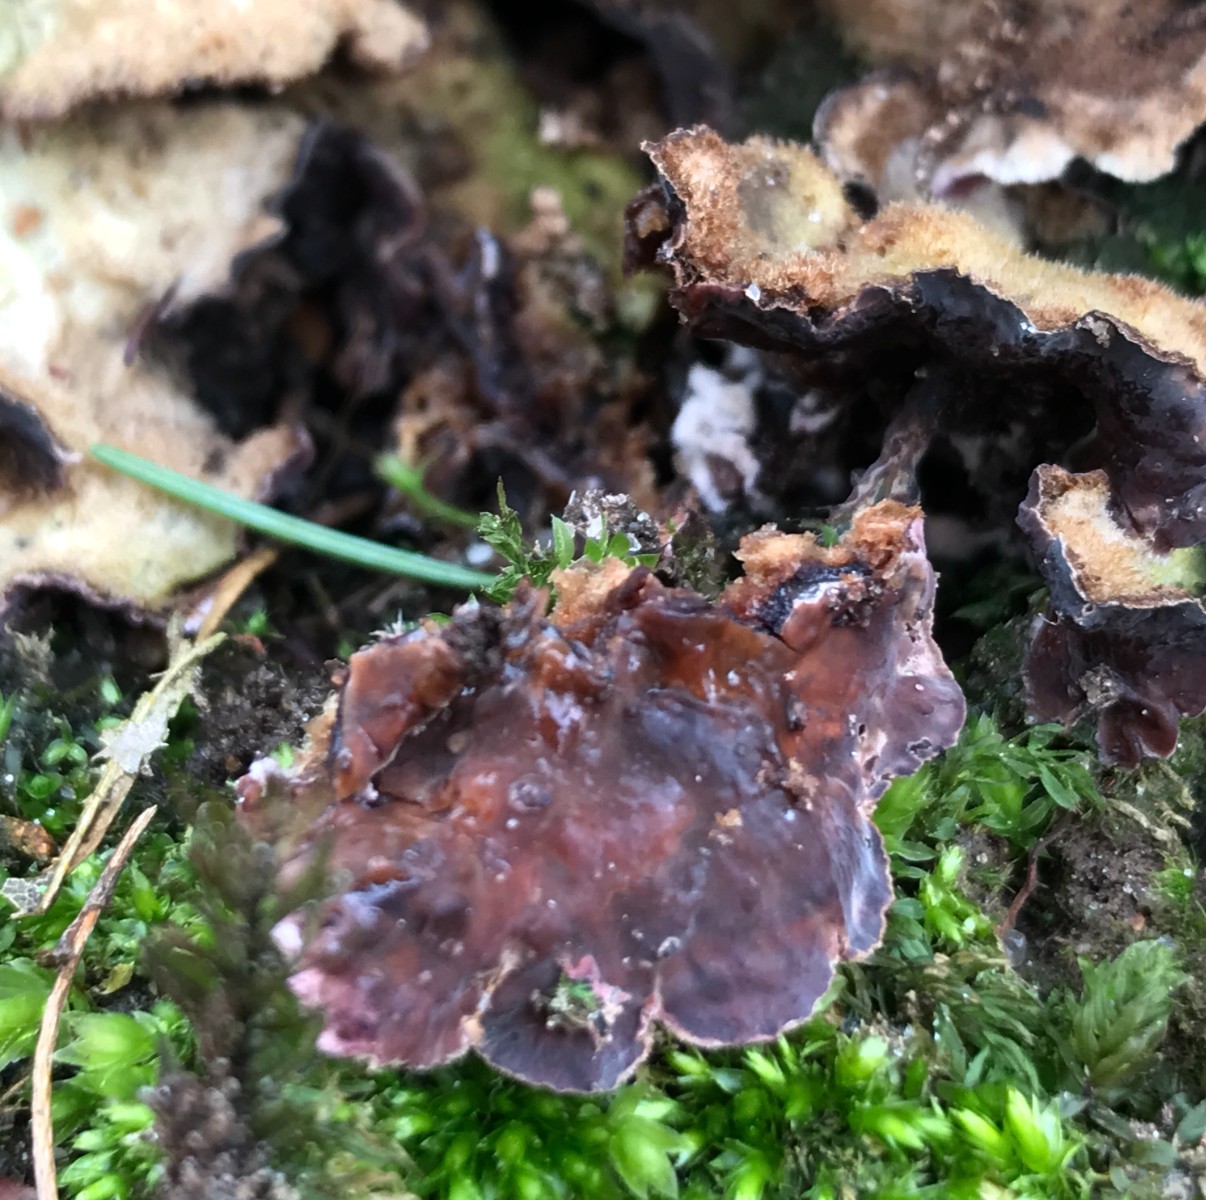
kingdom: Fungi
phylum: Basidiomycota
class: Agaricomycetes
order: Agaricales
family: Cyphellaceae
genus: Chondrostereum
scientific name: Chondrostereum purpureum
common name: purpurlædersvamp
